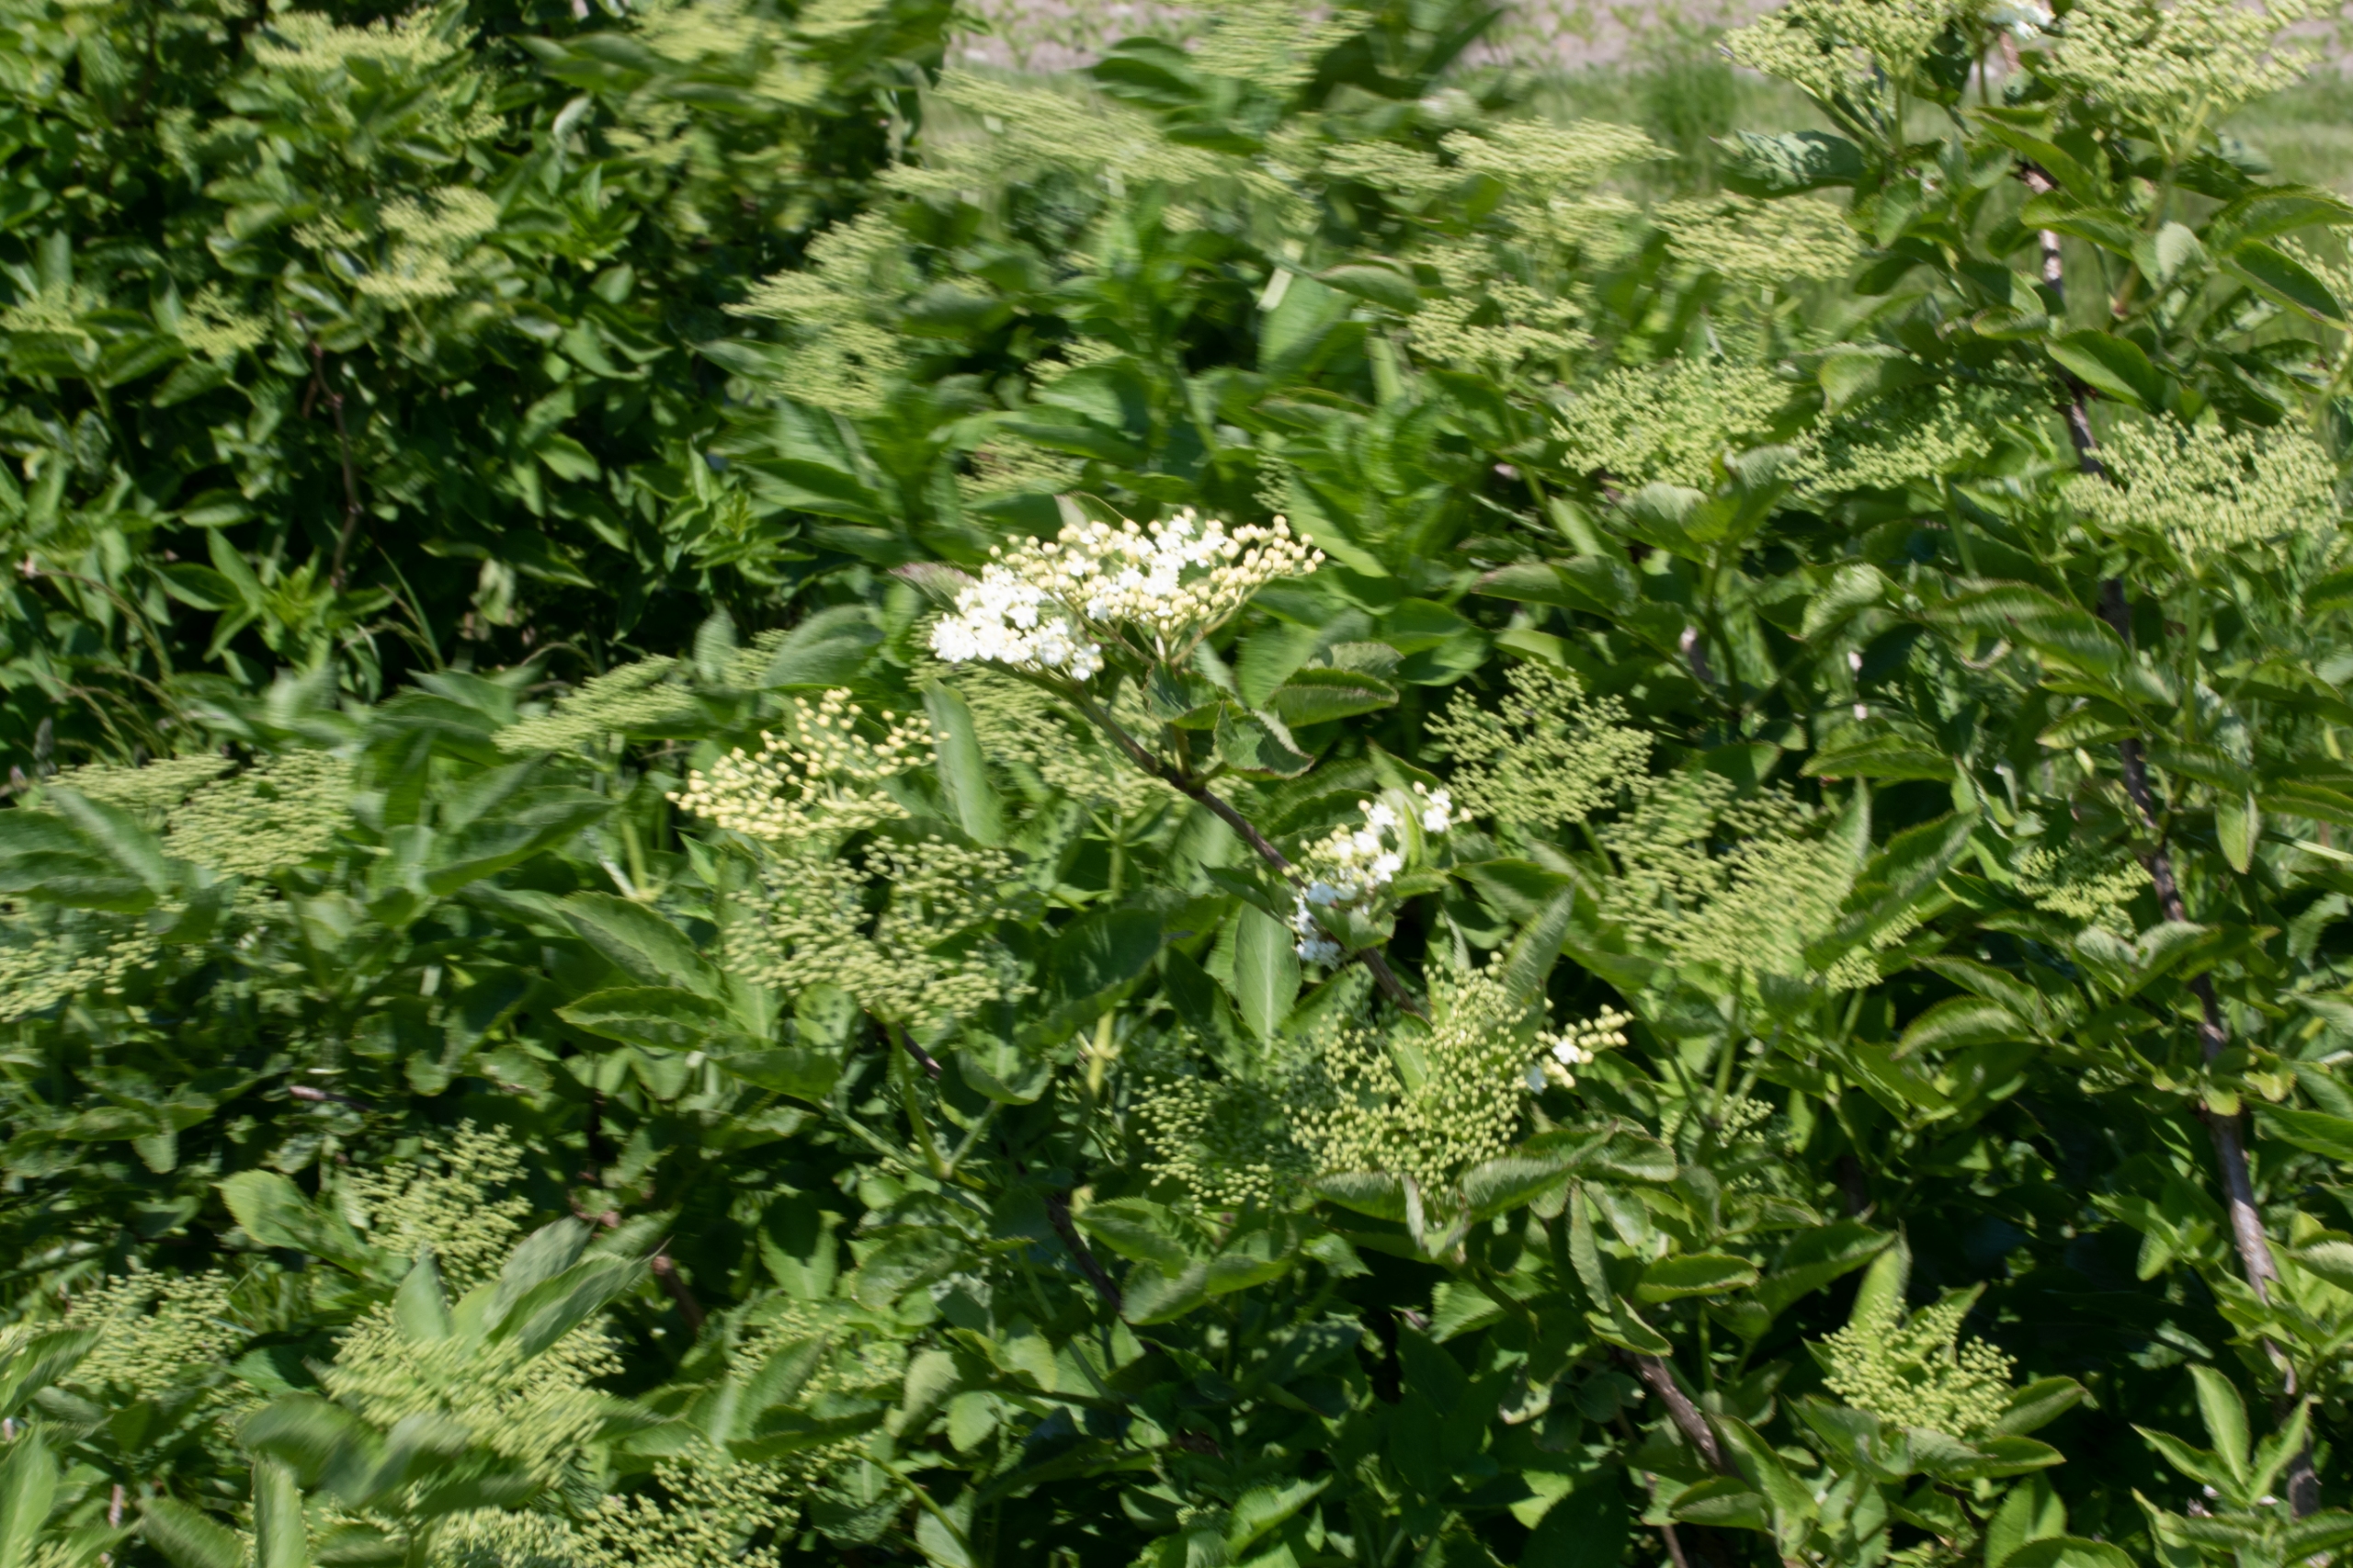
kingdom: Plantae
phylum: Tracheophyta
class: Magnoliopsida
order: Dipsacales
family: Viburnaceae
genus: Sambucus
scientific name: Sambucus nigra
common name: Almindelig hyld
